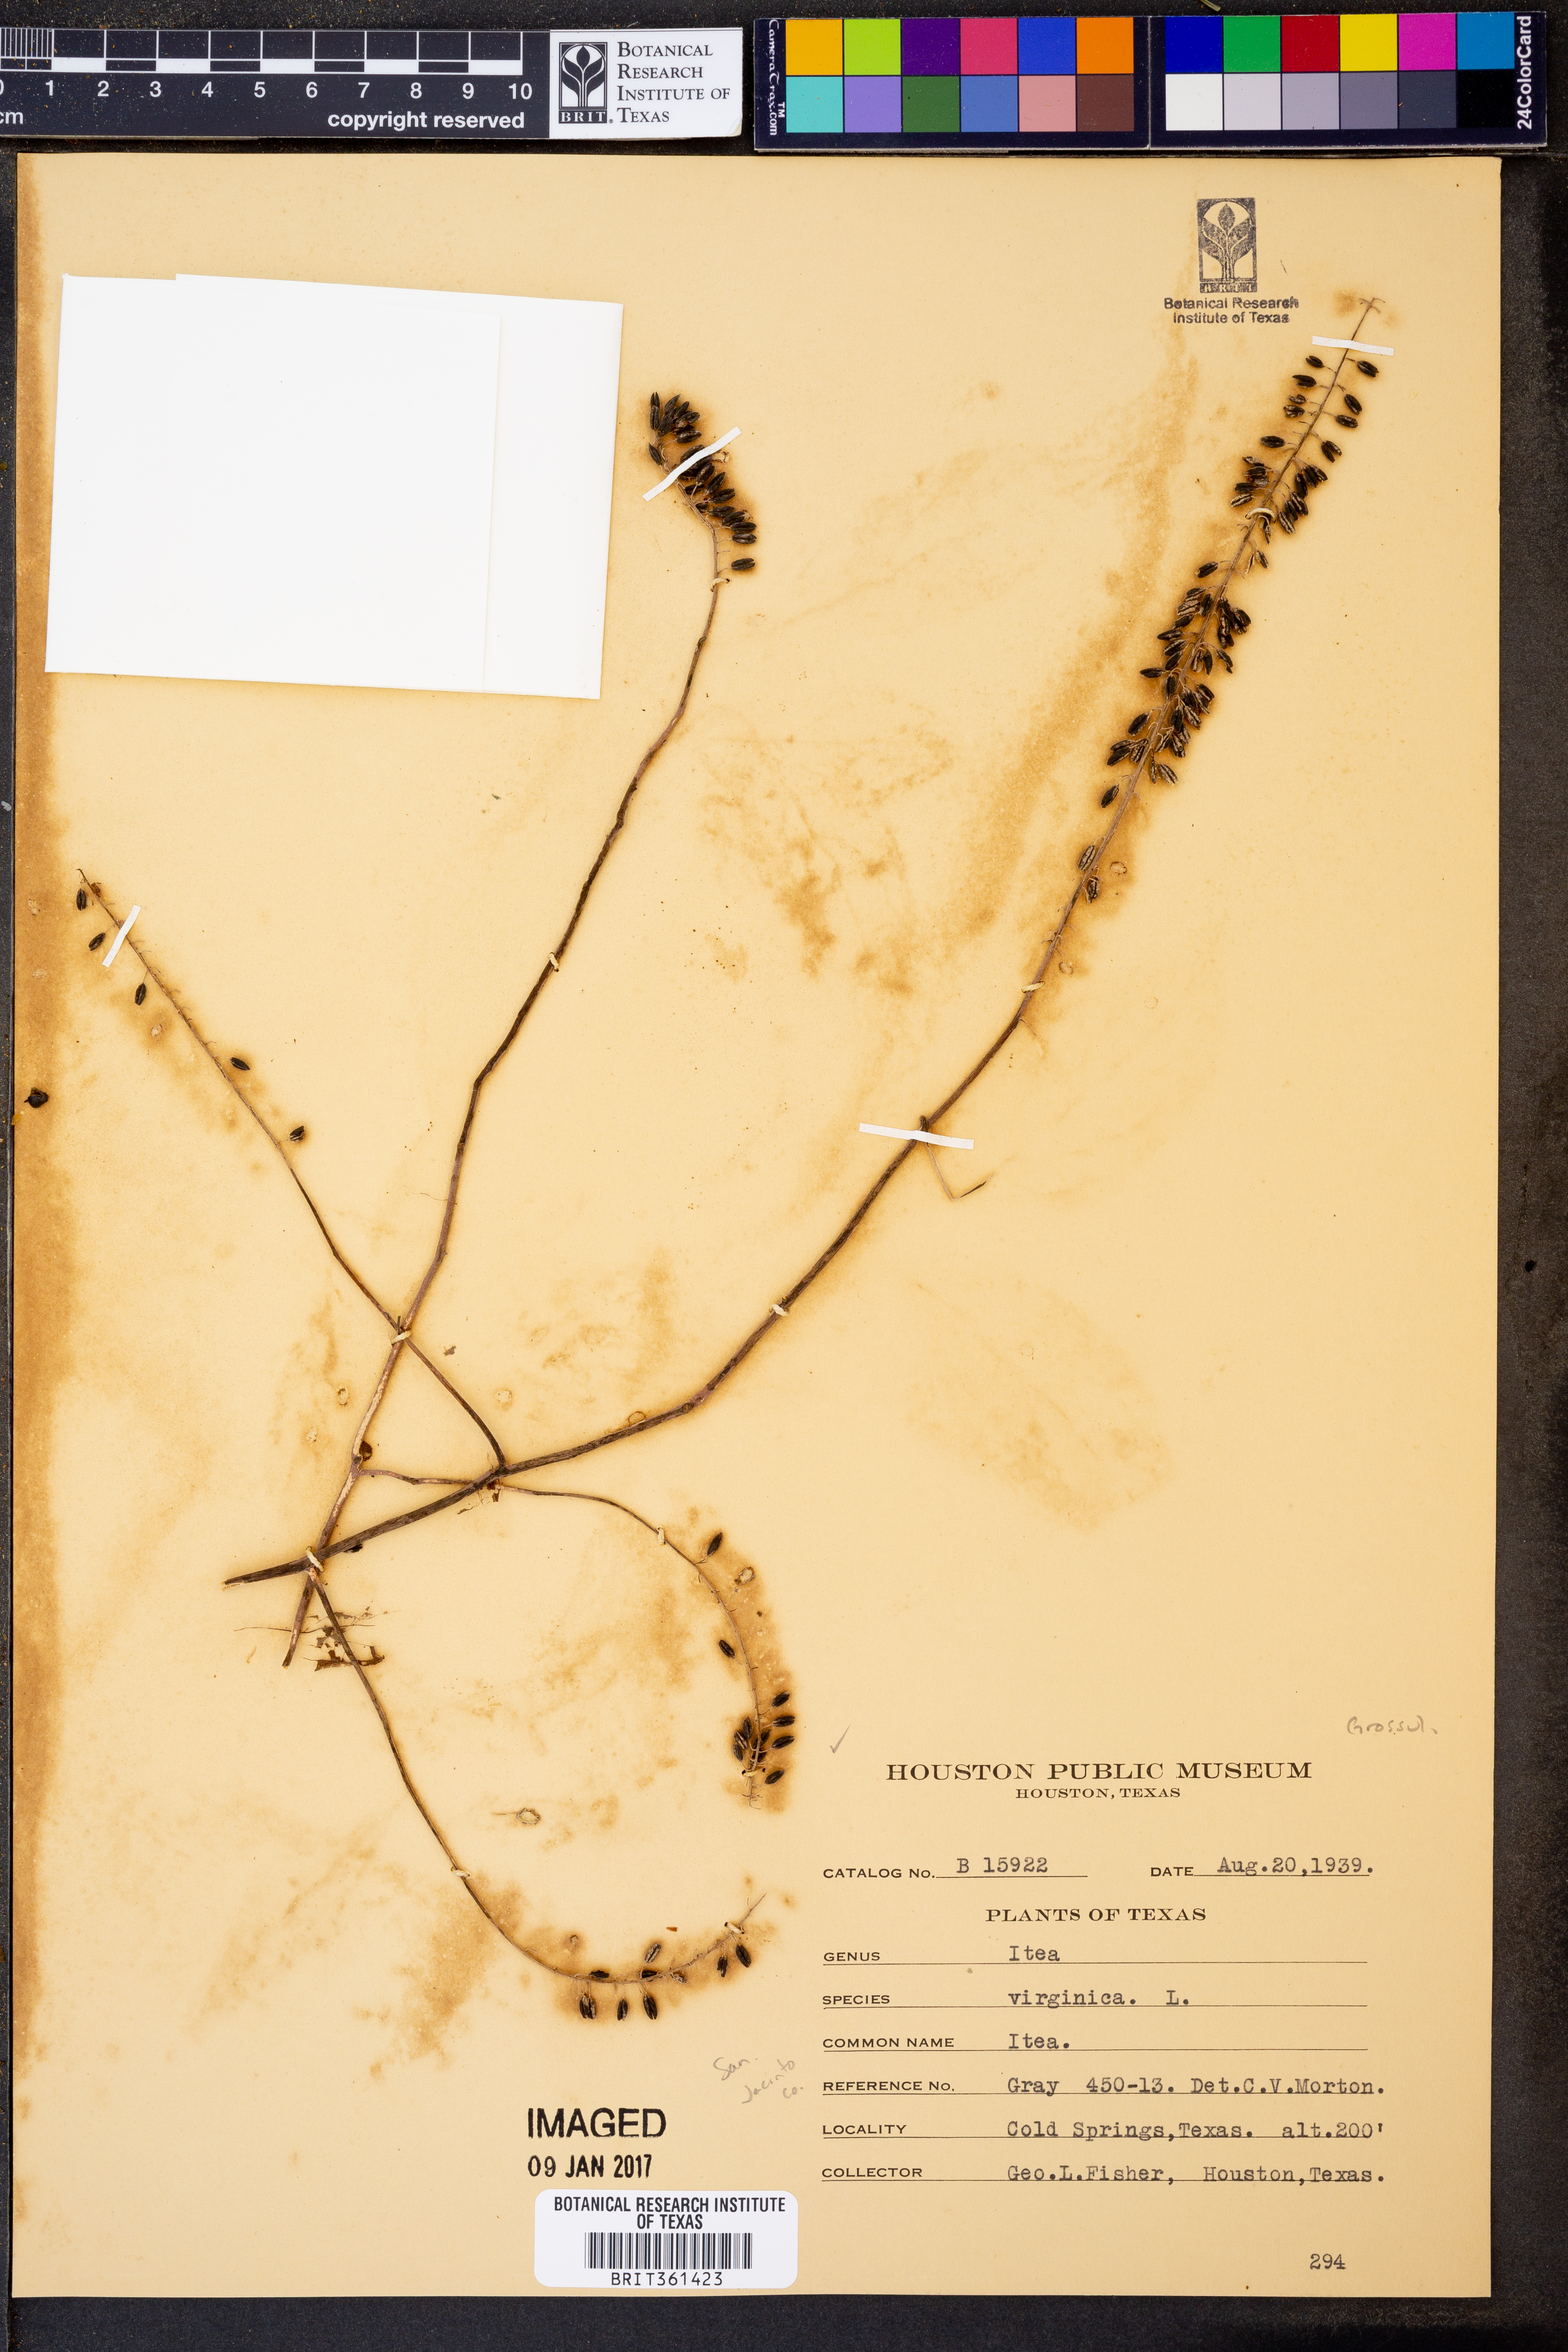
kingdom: Plantae
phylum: Tracheophyta
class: Magnoliopsida
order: Saxifragales
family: Iteaceae
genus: Itea
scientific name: Itea virginica
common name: Sweetspire
